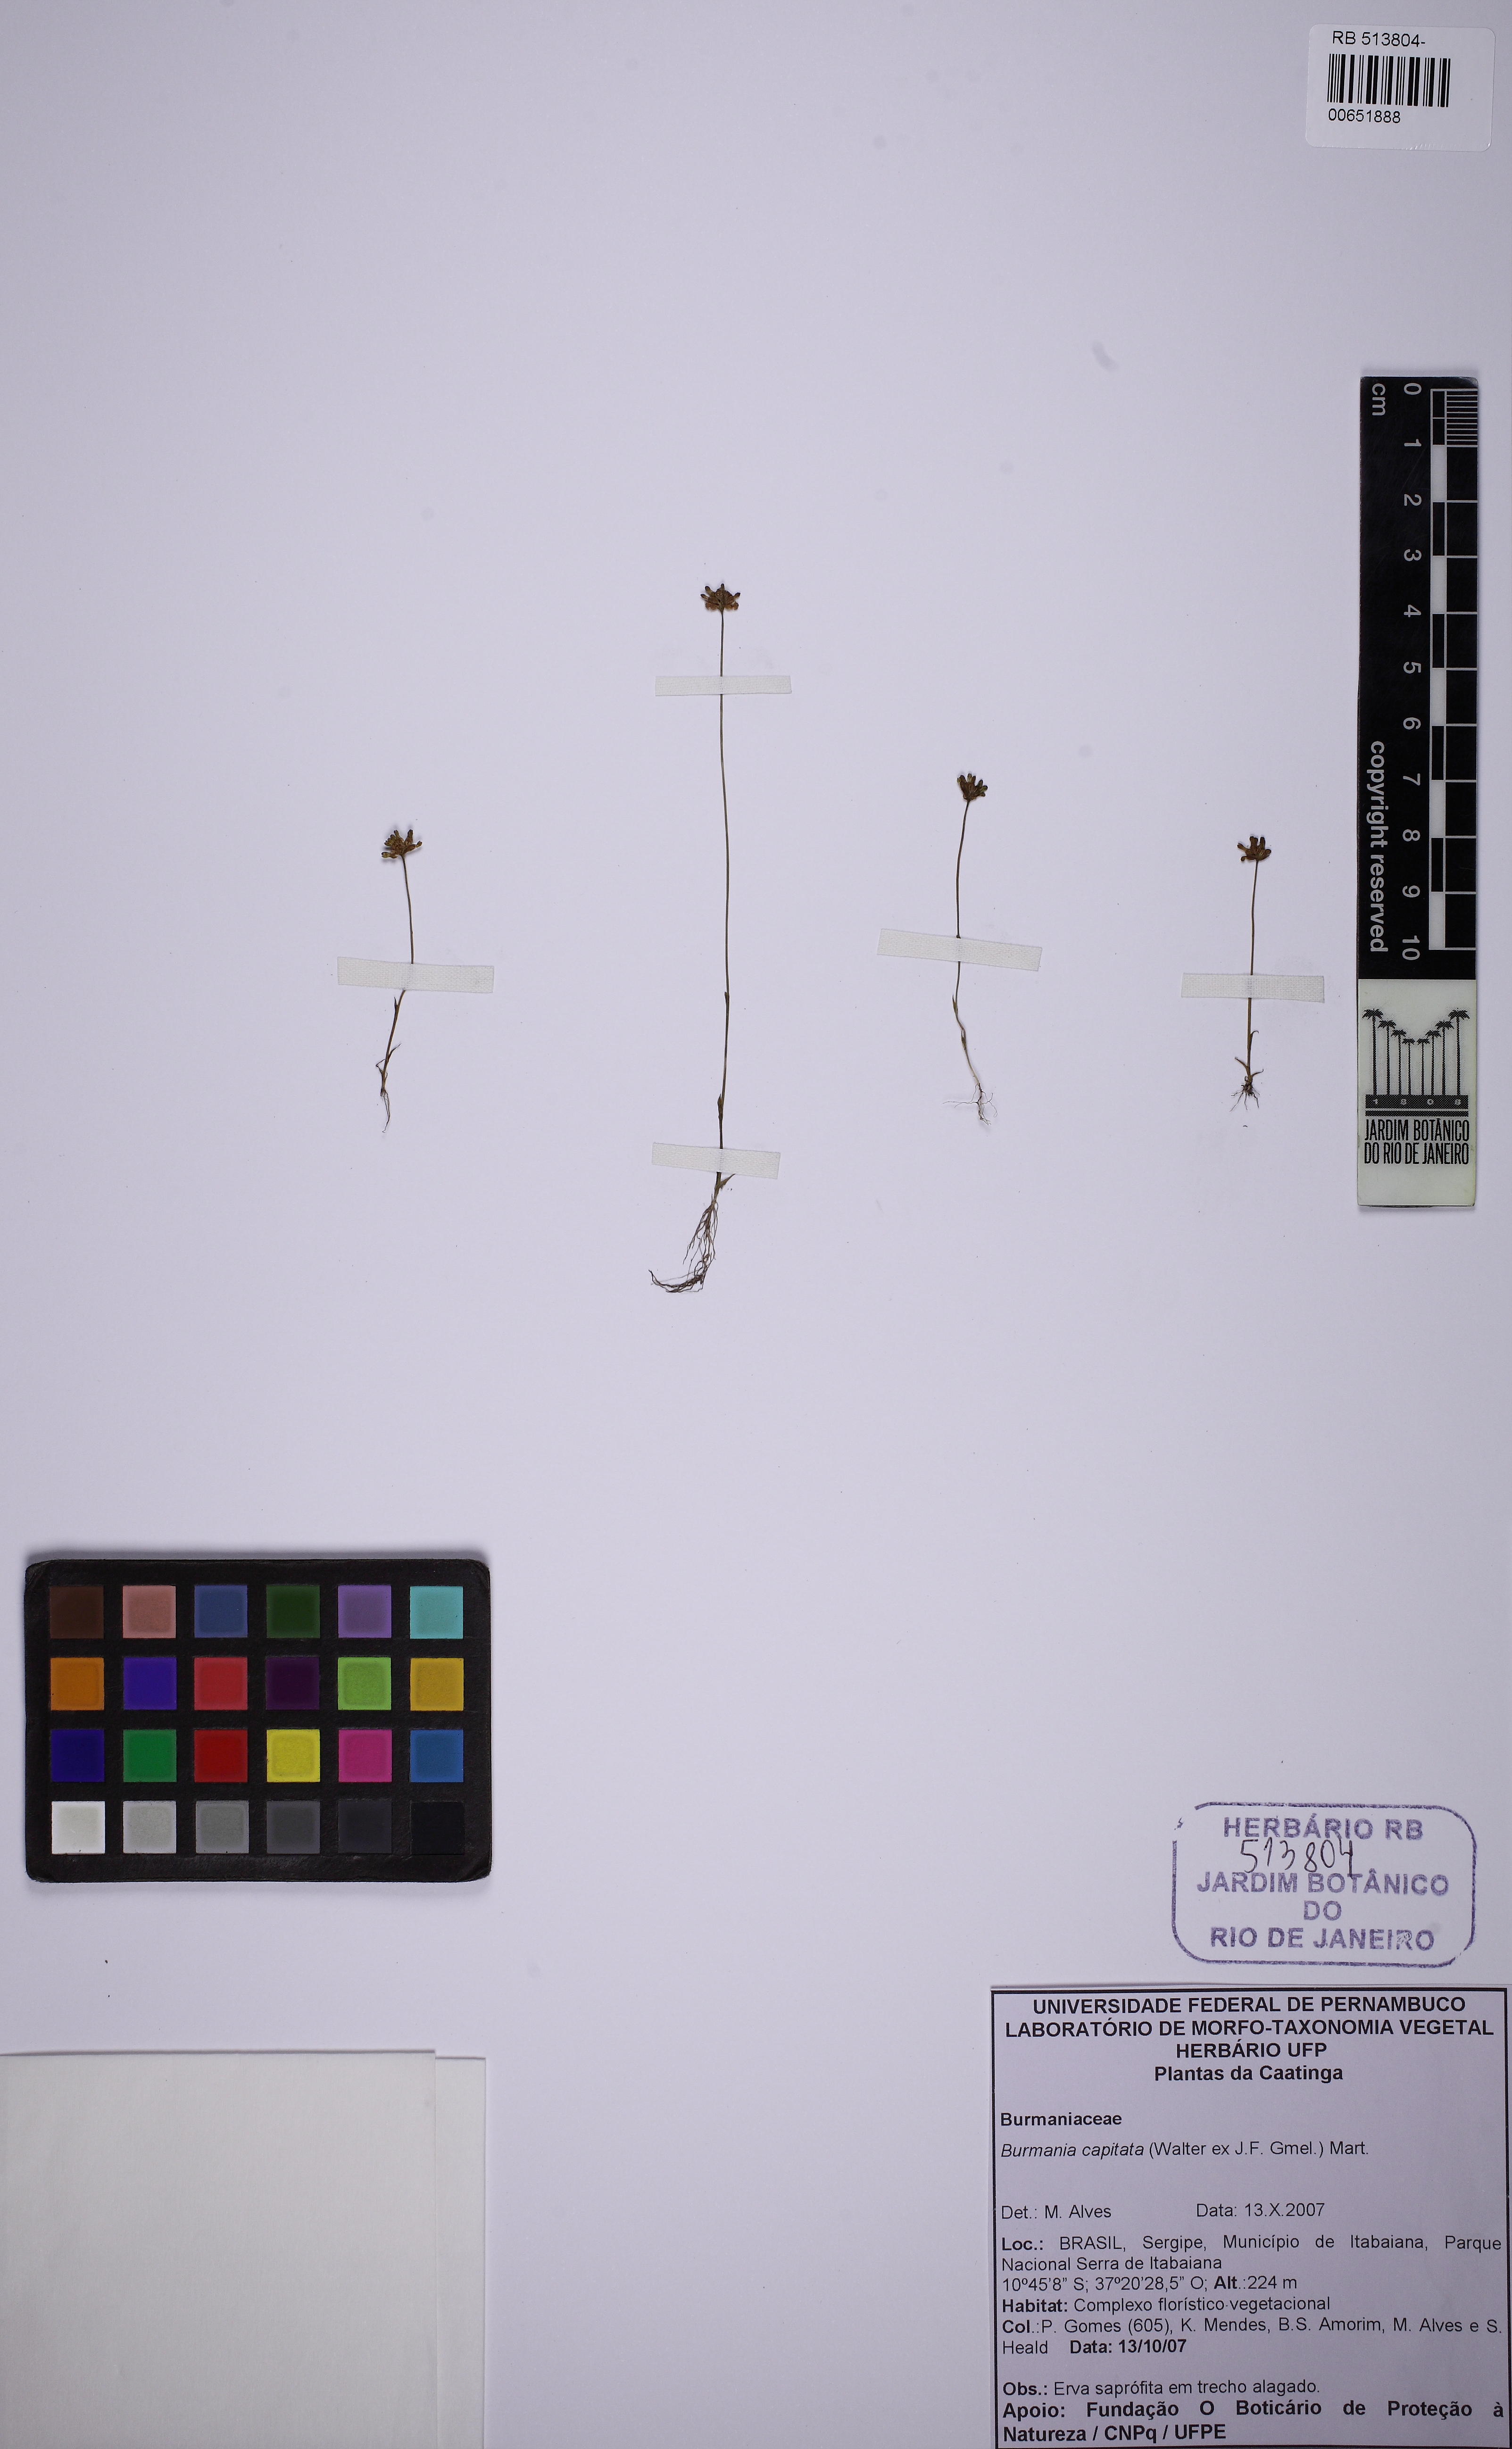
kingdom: Plantae
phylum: Tracheophyta
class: Liliopsida
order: Dioscoreales
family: Burmanniaceae
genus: Burmannia
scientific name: Burmannia capitata
